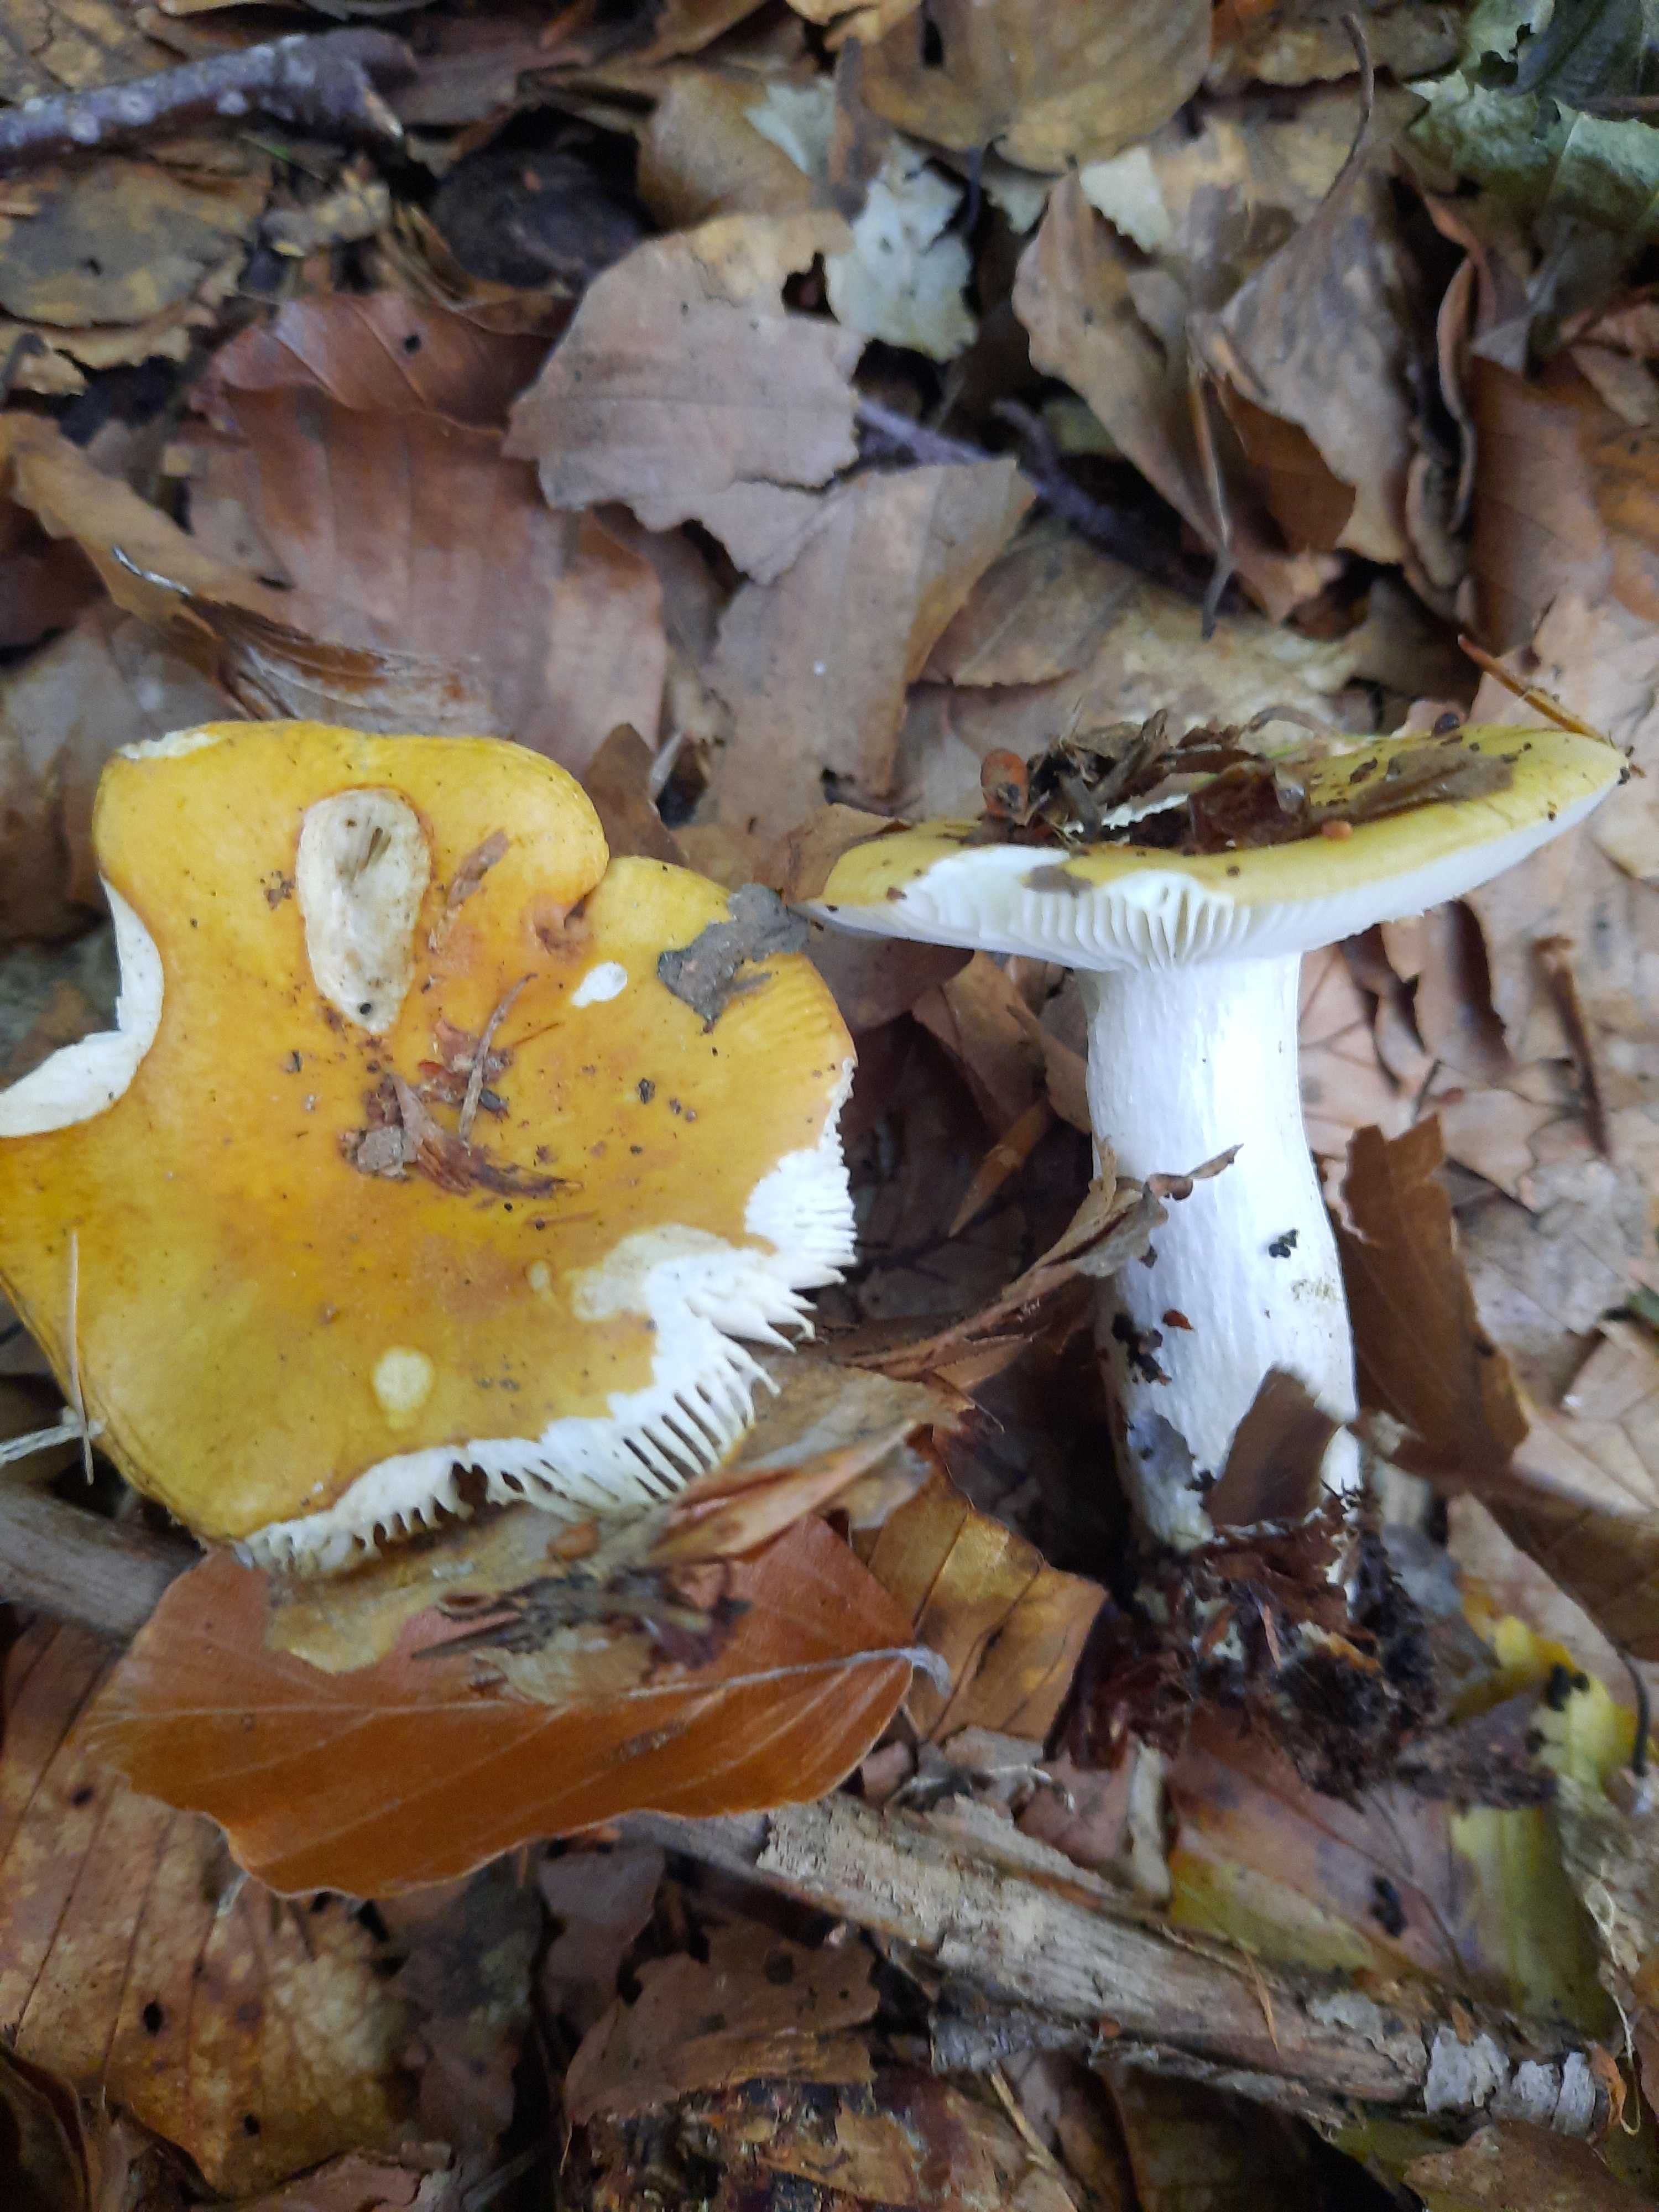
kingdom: Fungi
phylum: Basidiomycota
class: Agaricomycetes
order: Russulales
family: Russulaceae
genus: Russula
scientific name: Russula ochroleuca
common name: okkergul skørhat
